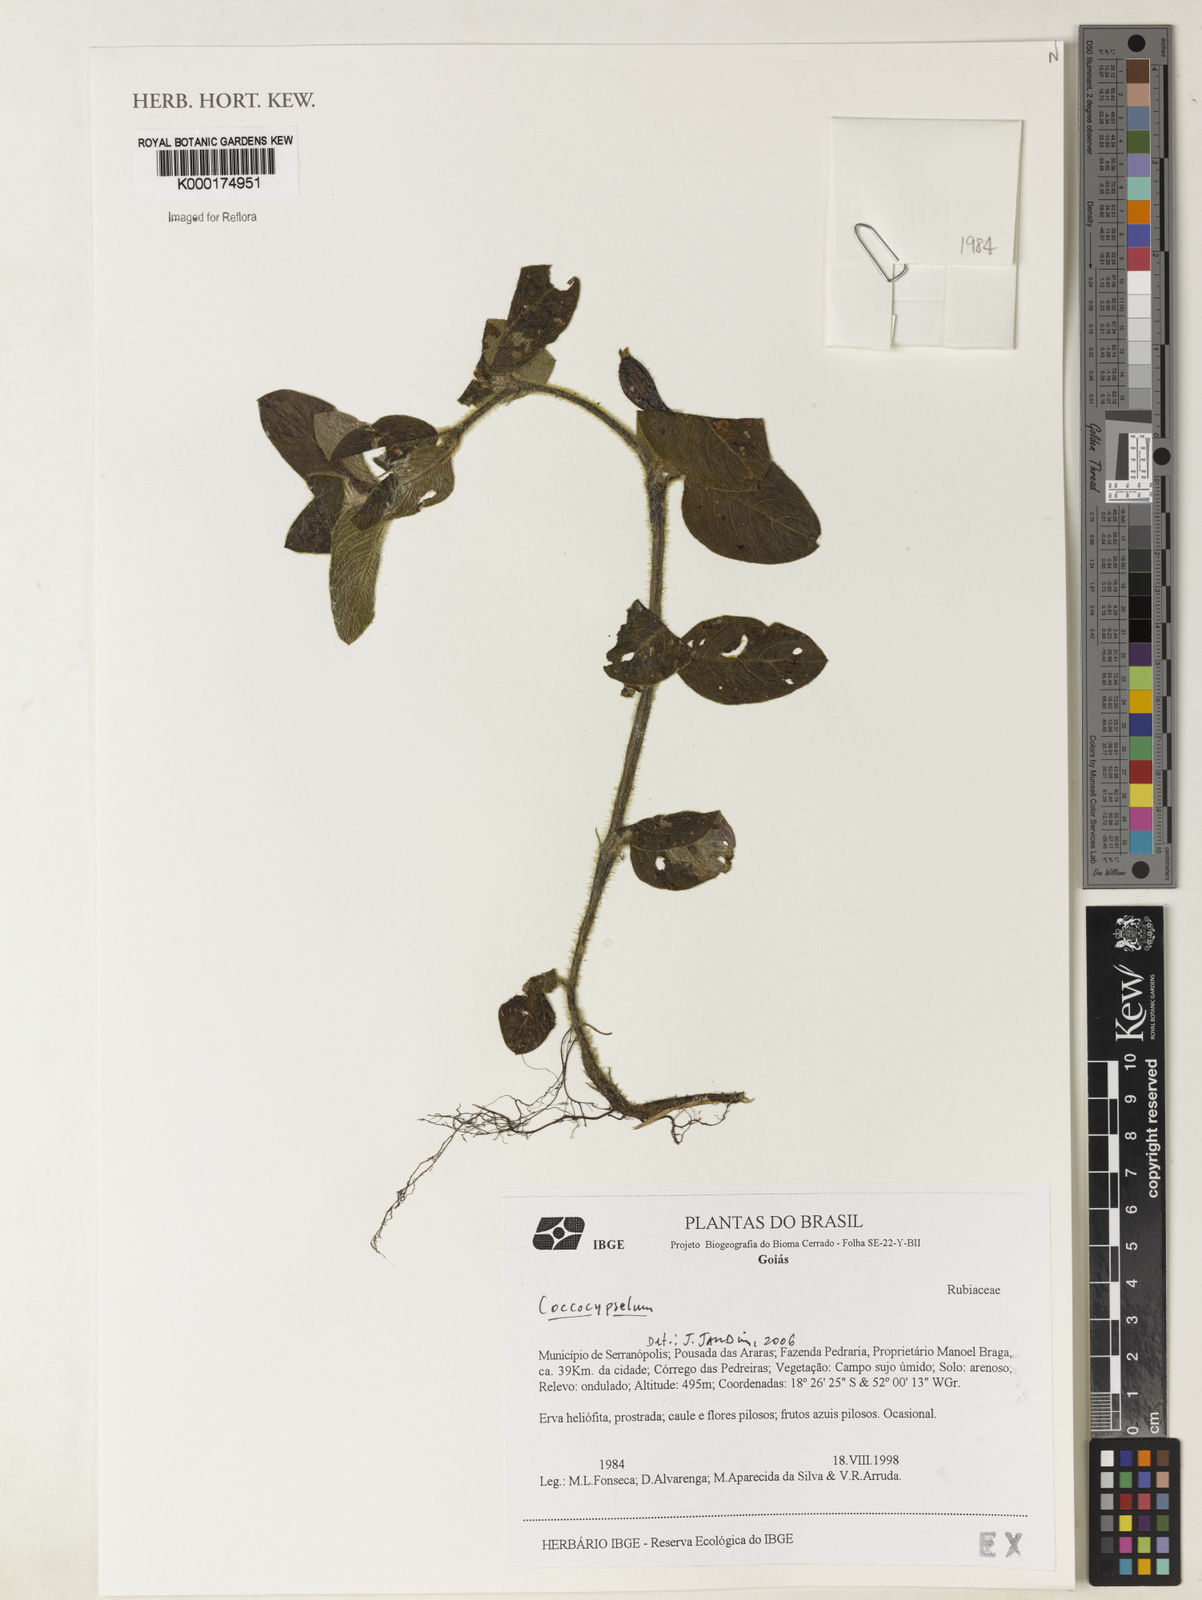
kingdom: Plantae
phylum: Tracheophyta
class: Magnoliopsida
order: Gentianales
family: Rubiaceae
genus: Coccocypselum
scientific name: Coccocypselum
